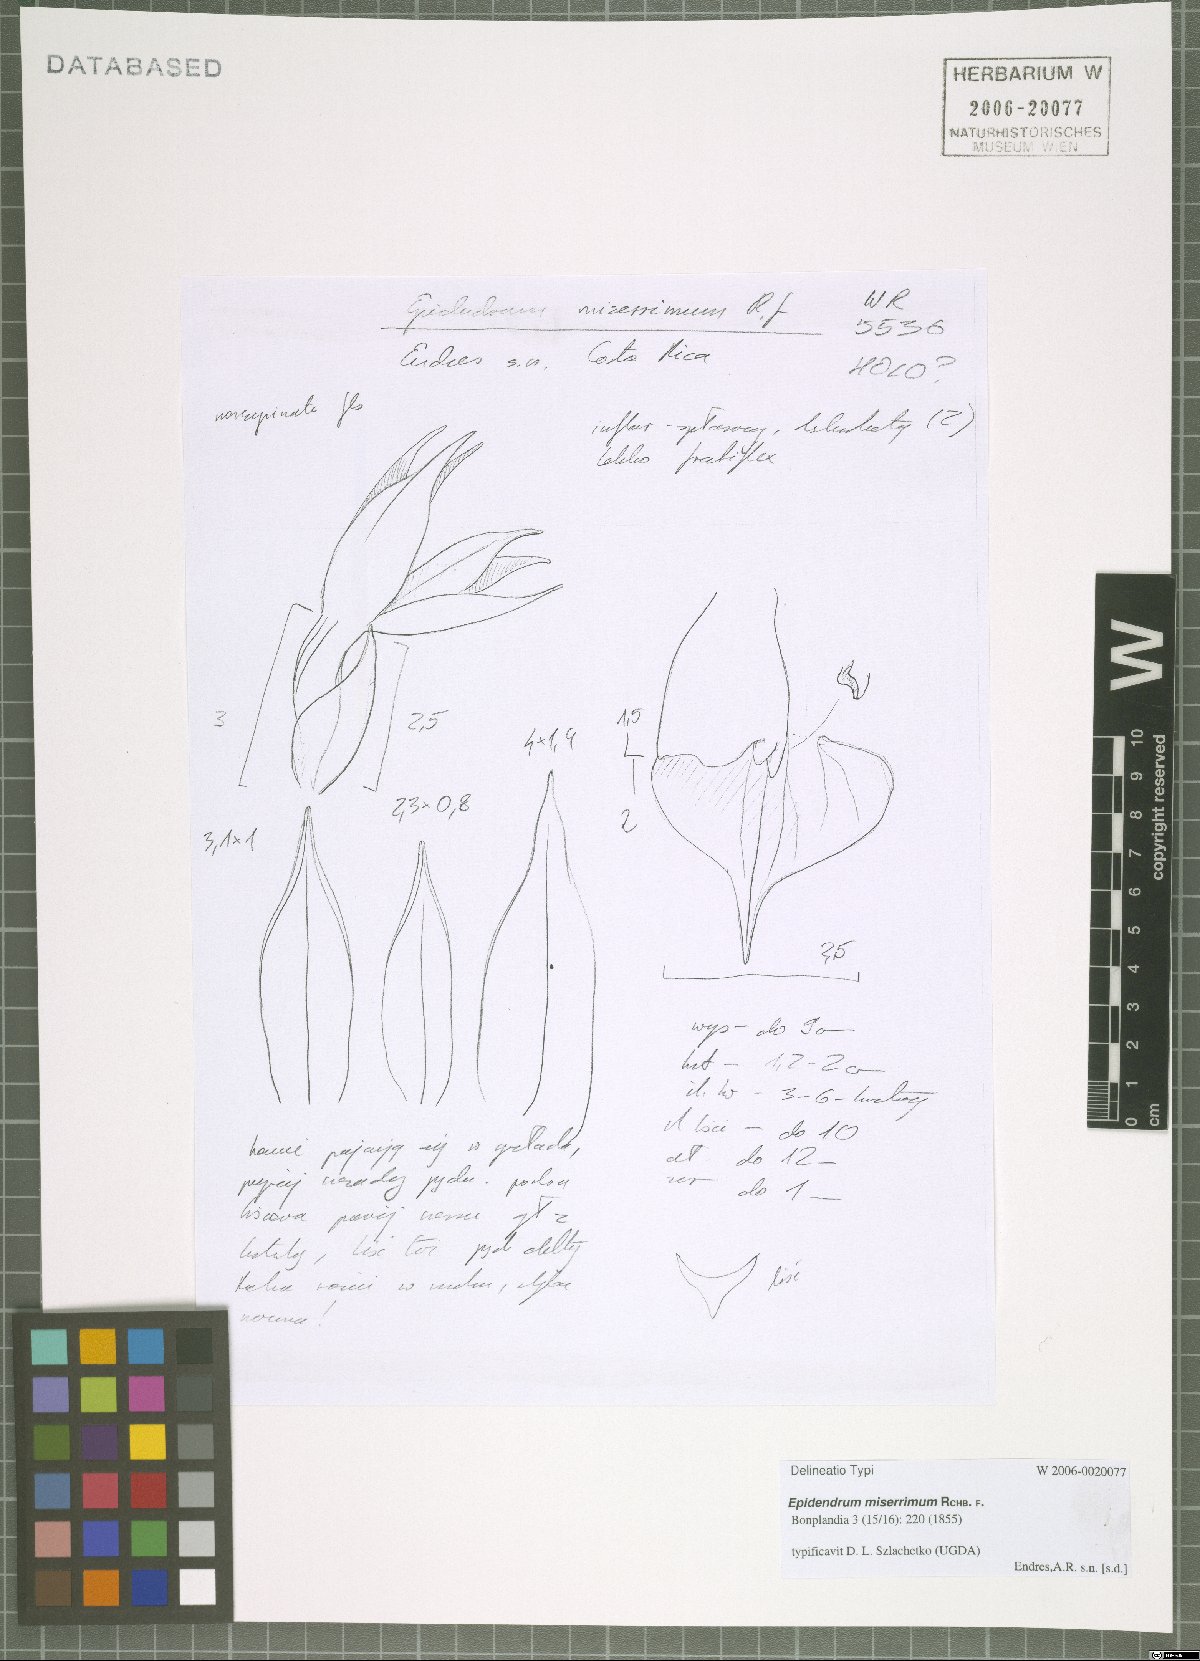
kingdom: Plantae
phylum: Tracheophyta
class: Liliopsida
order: Asparagales
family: Orchidaceae
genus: Epidendrum
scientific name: Epidendrum miserrimum
